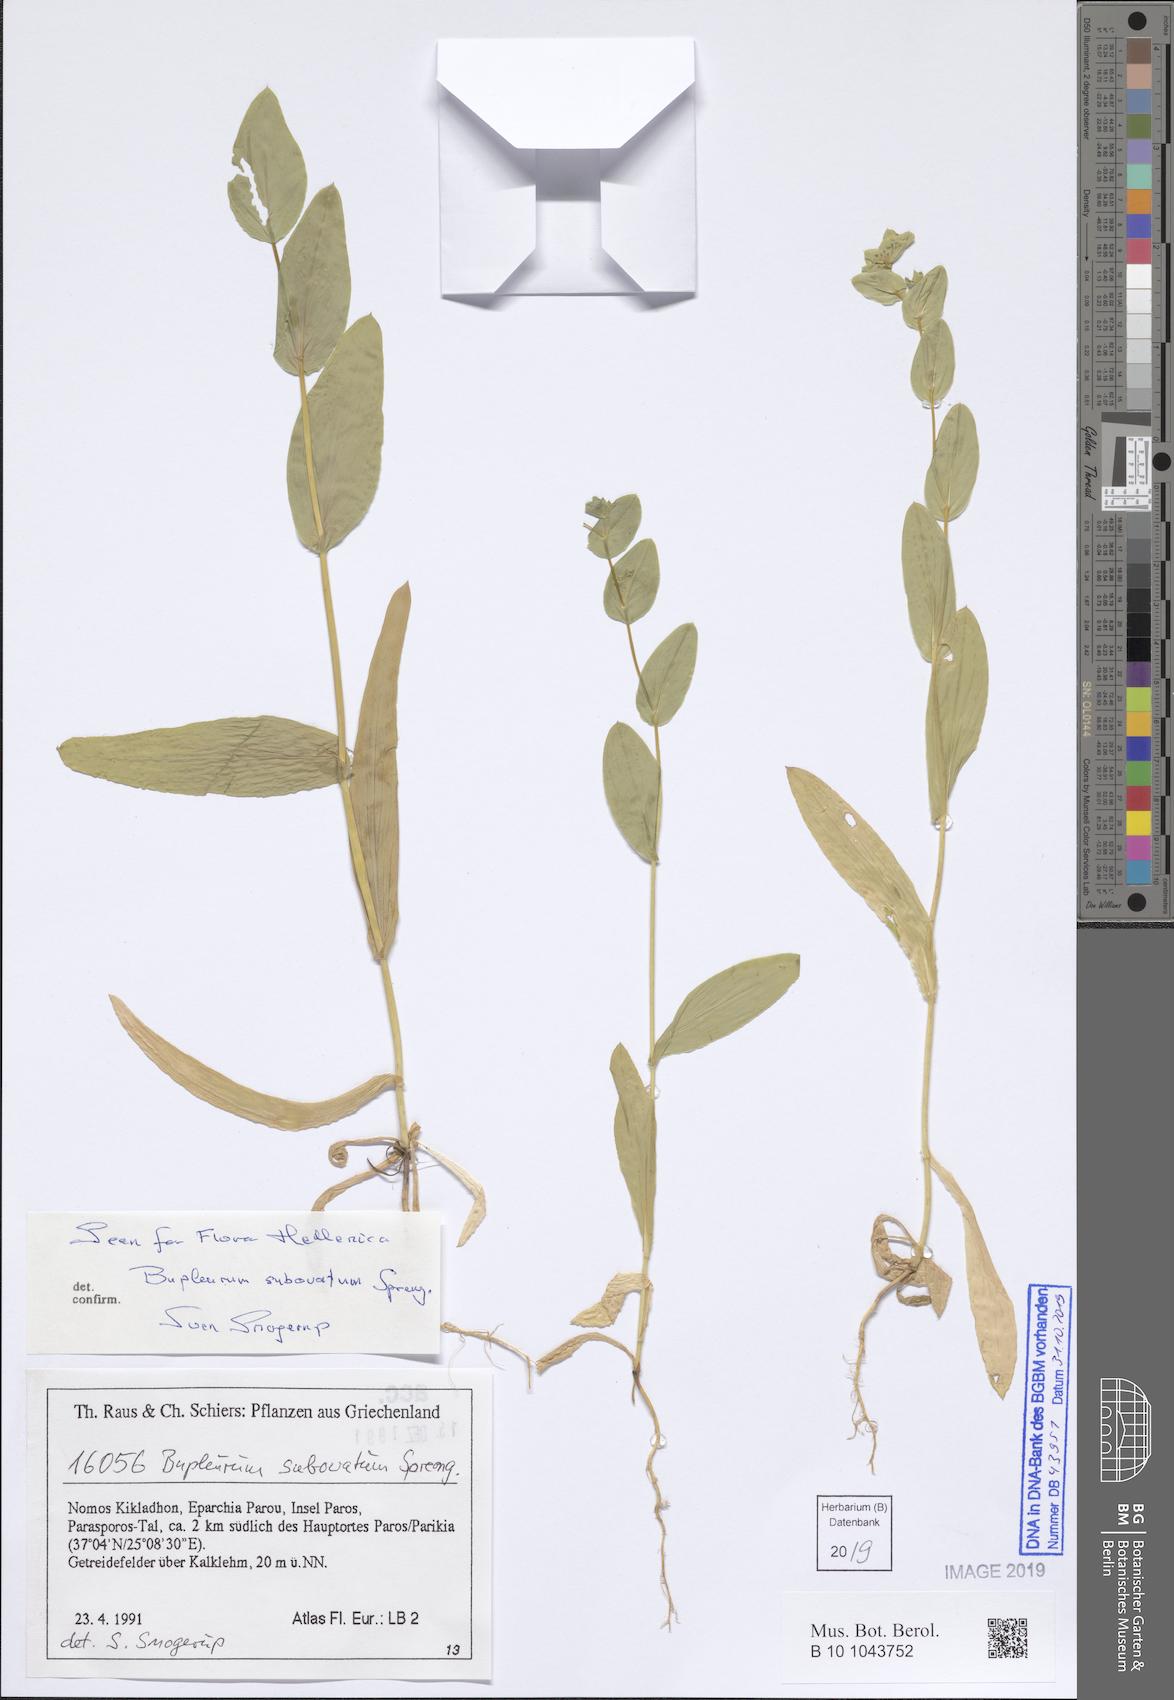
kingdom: Plantae
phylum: Tracheophyta
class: Magnoliopsida
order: Apiales
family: Apiaceae
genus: Bupleurum
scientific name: Bupleurum subovatum
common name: False thorow-wax
